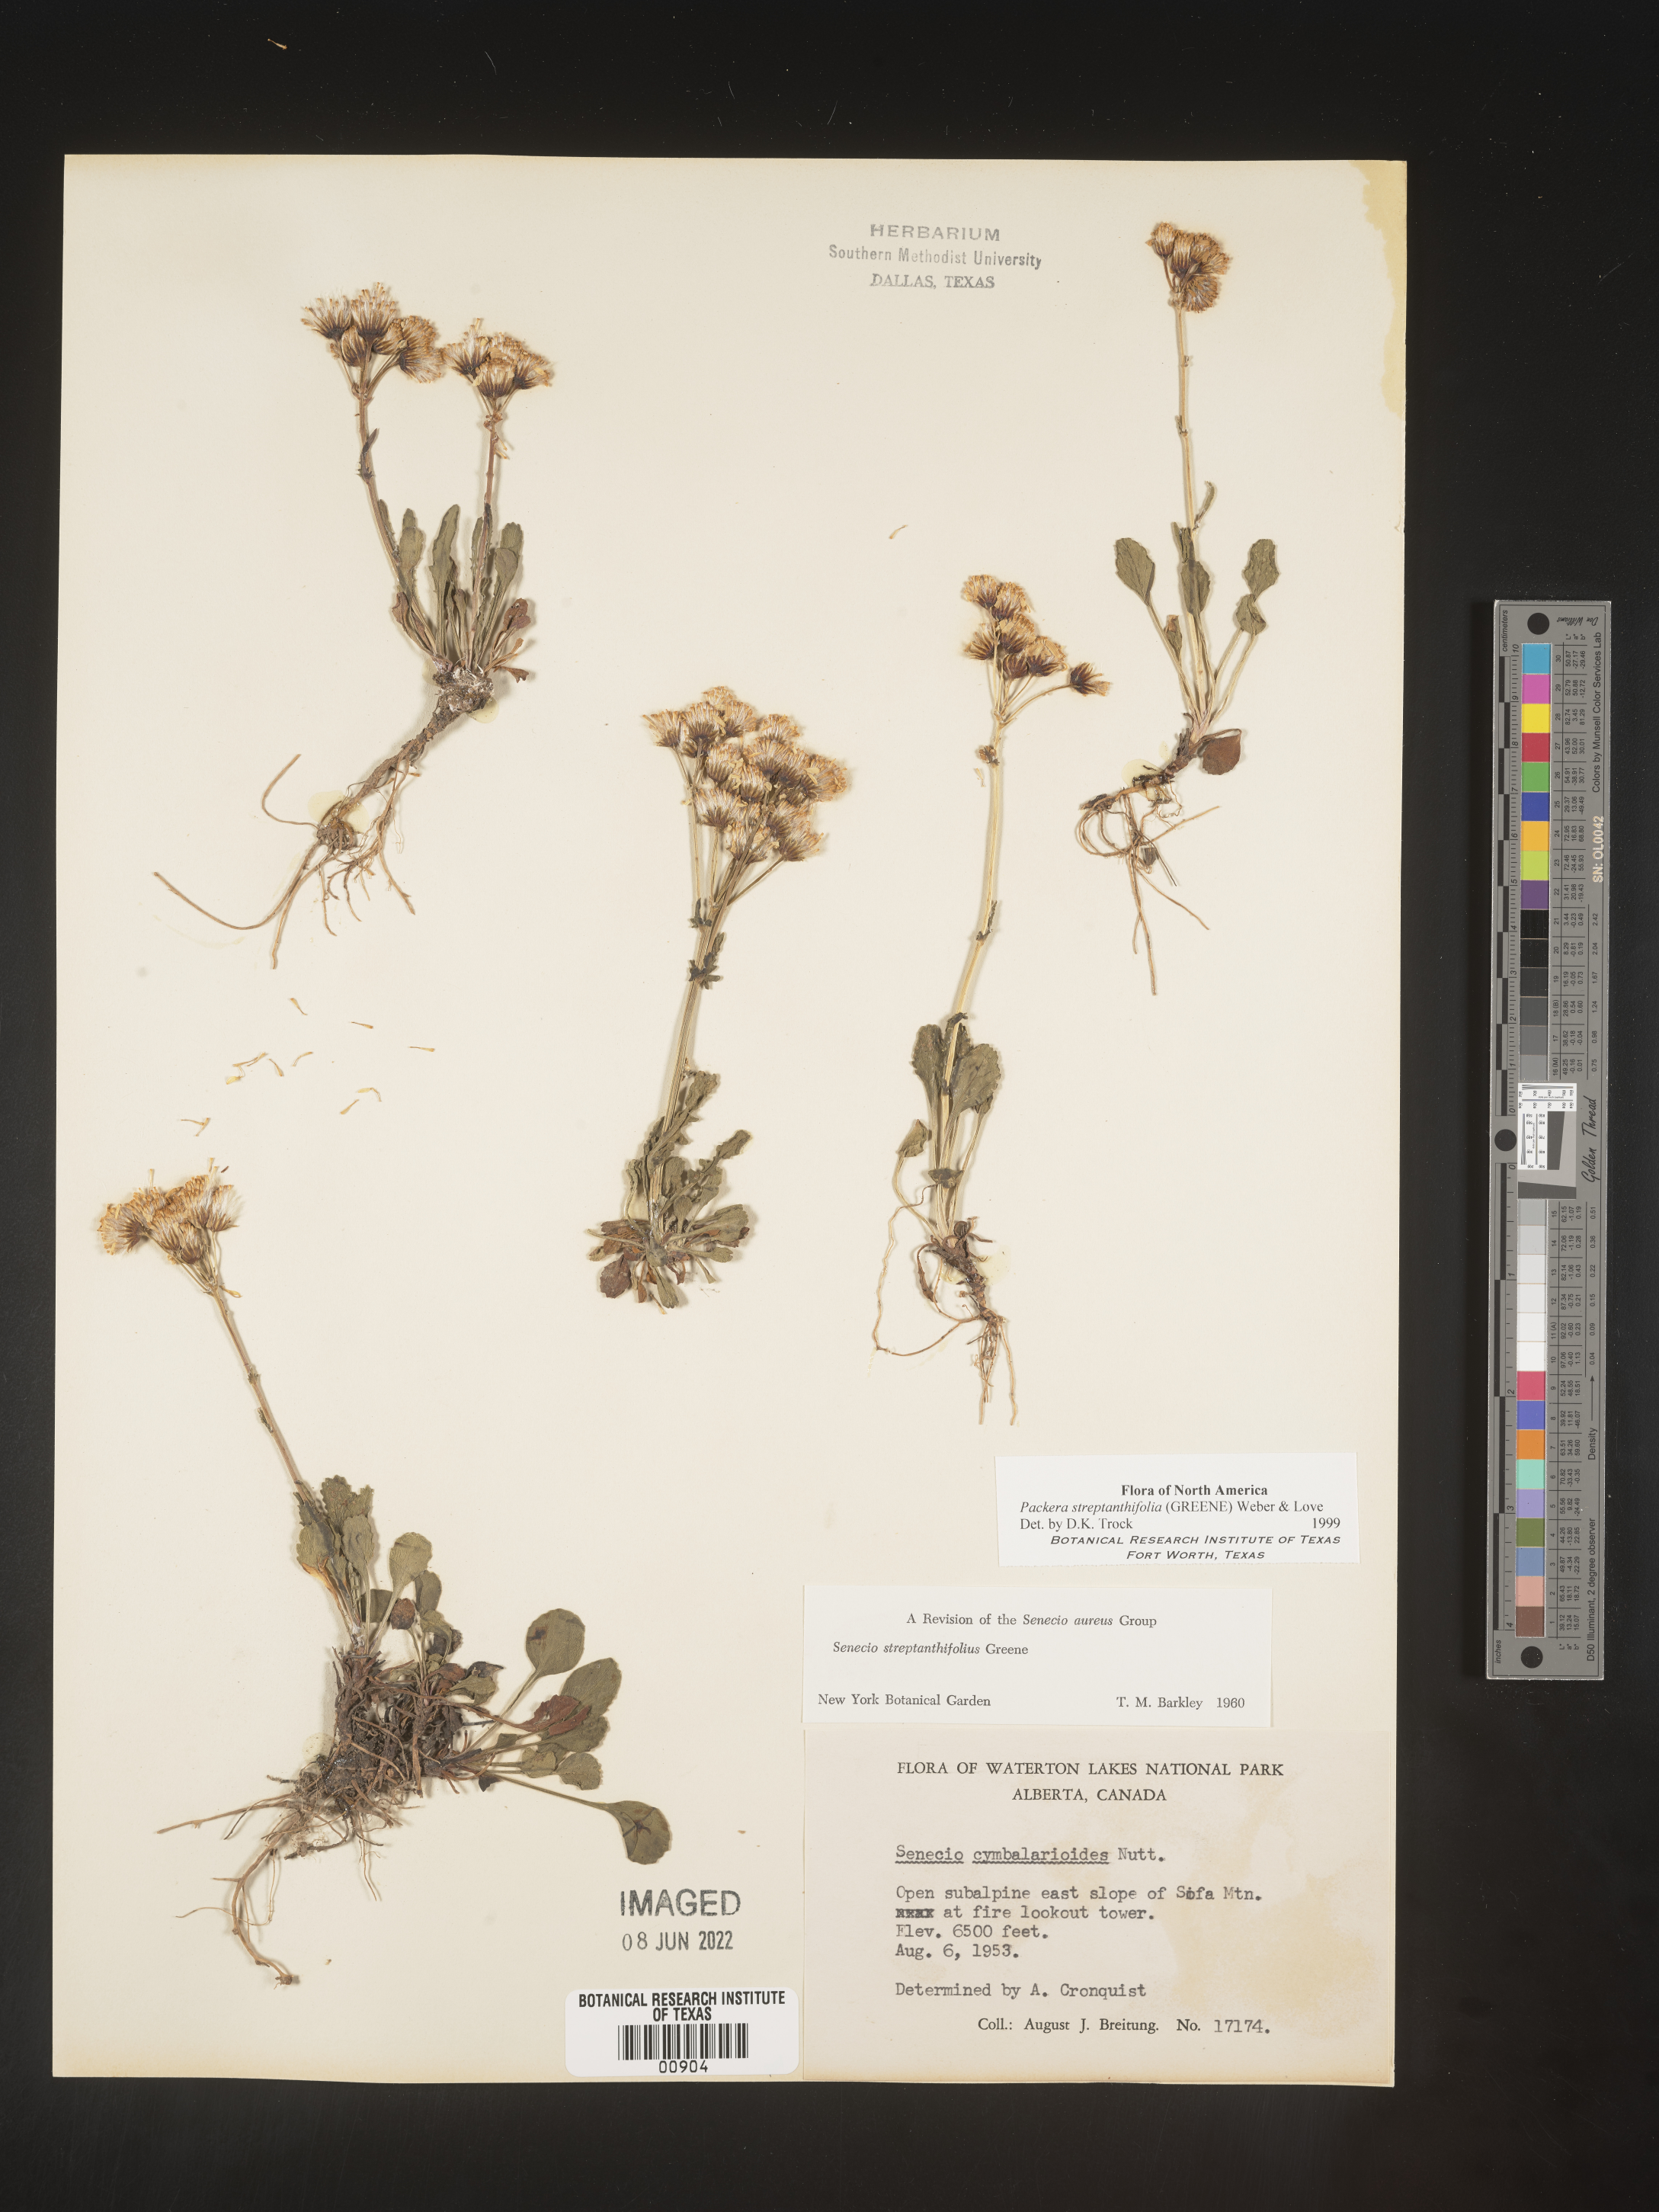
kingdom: Plantae
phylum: Tracheophyta
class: Magnoliopsida
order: Asterales
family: Asteraceae
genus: Packera
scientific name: Packera streptanthifolia
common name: Rocky mountain butterweed
